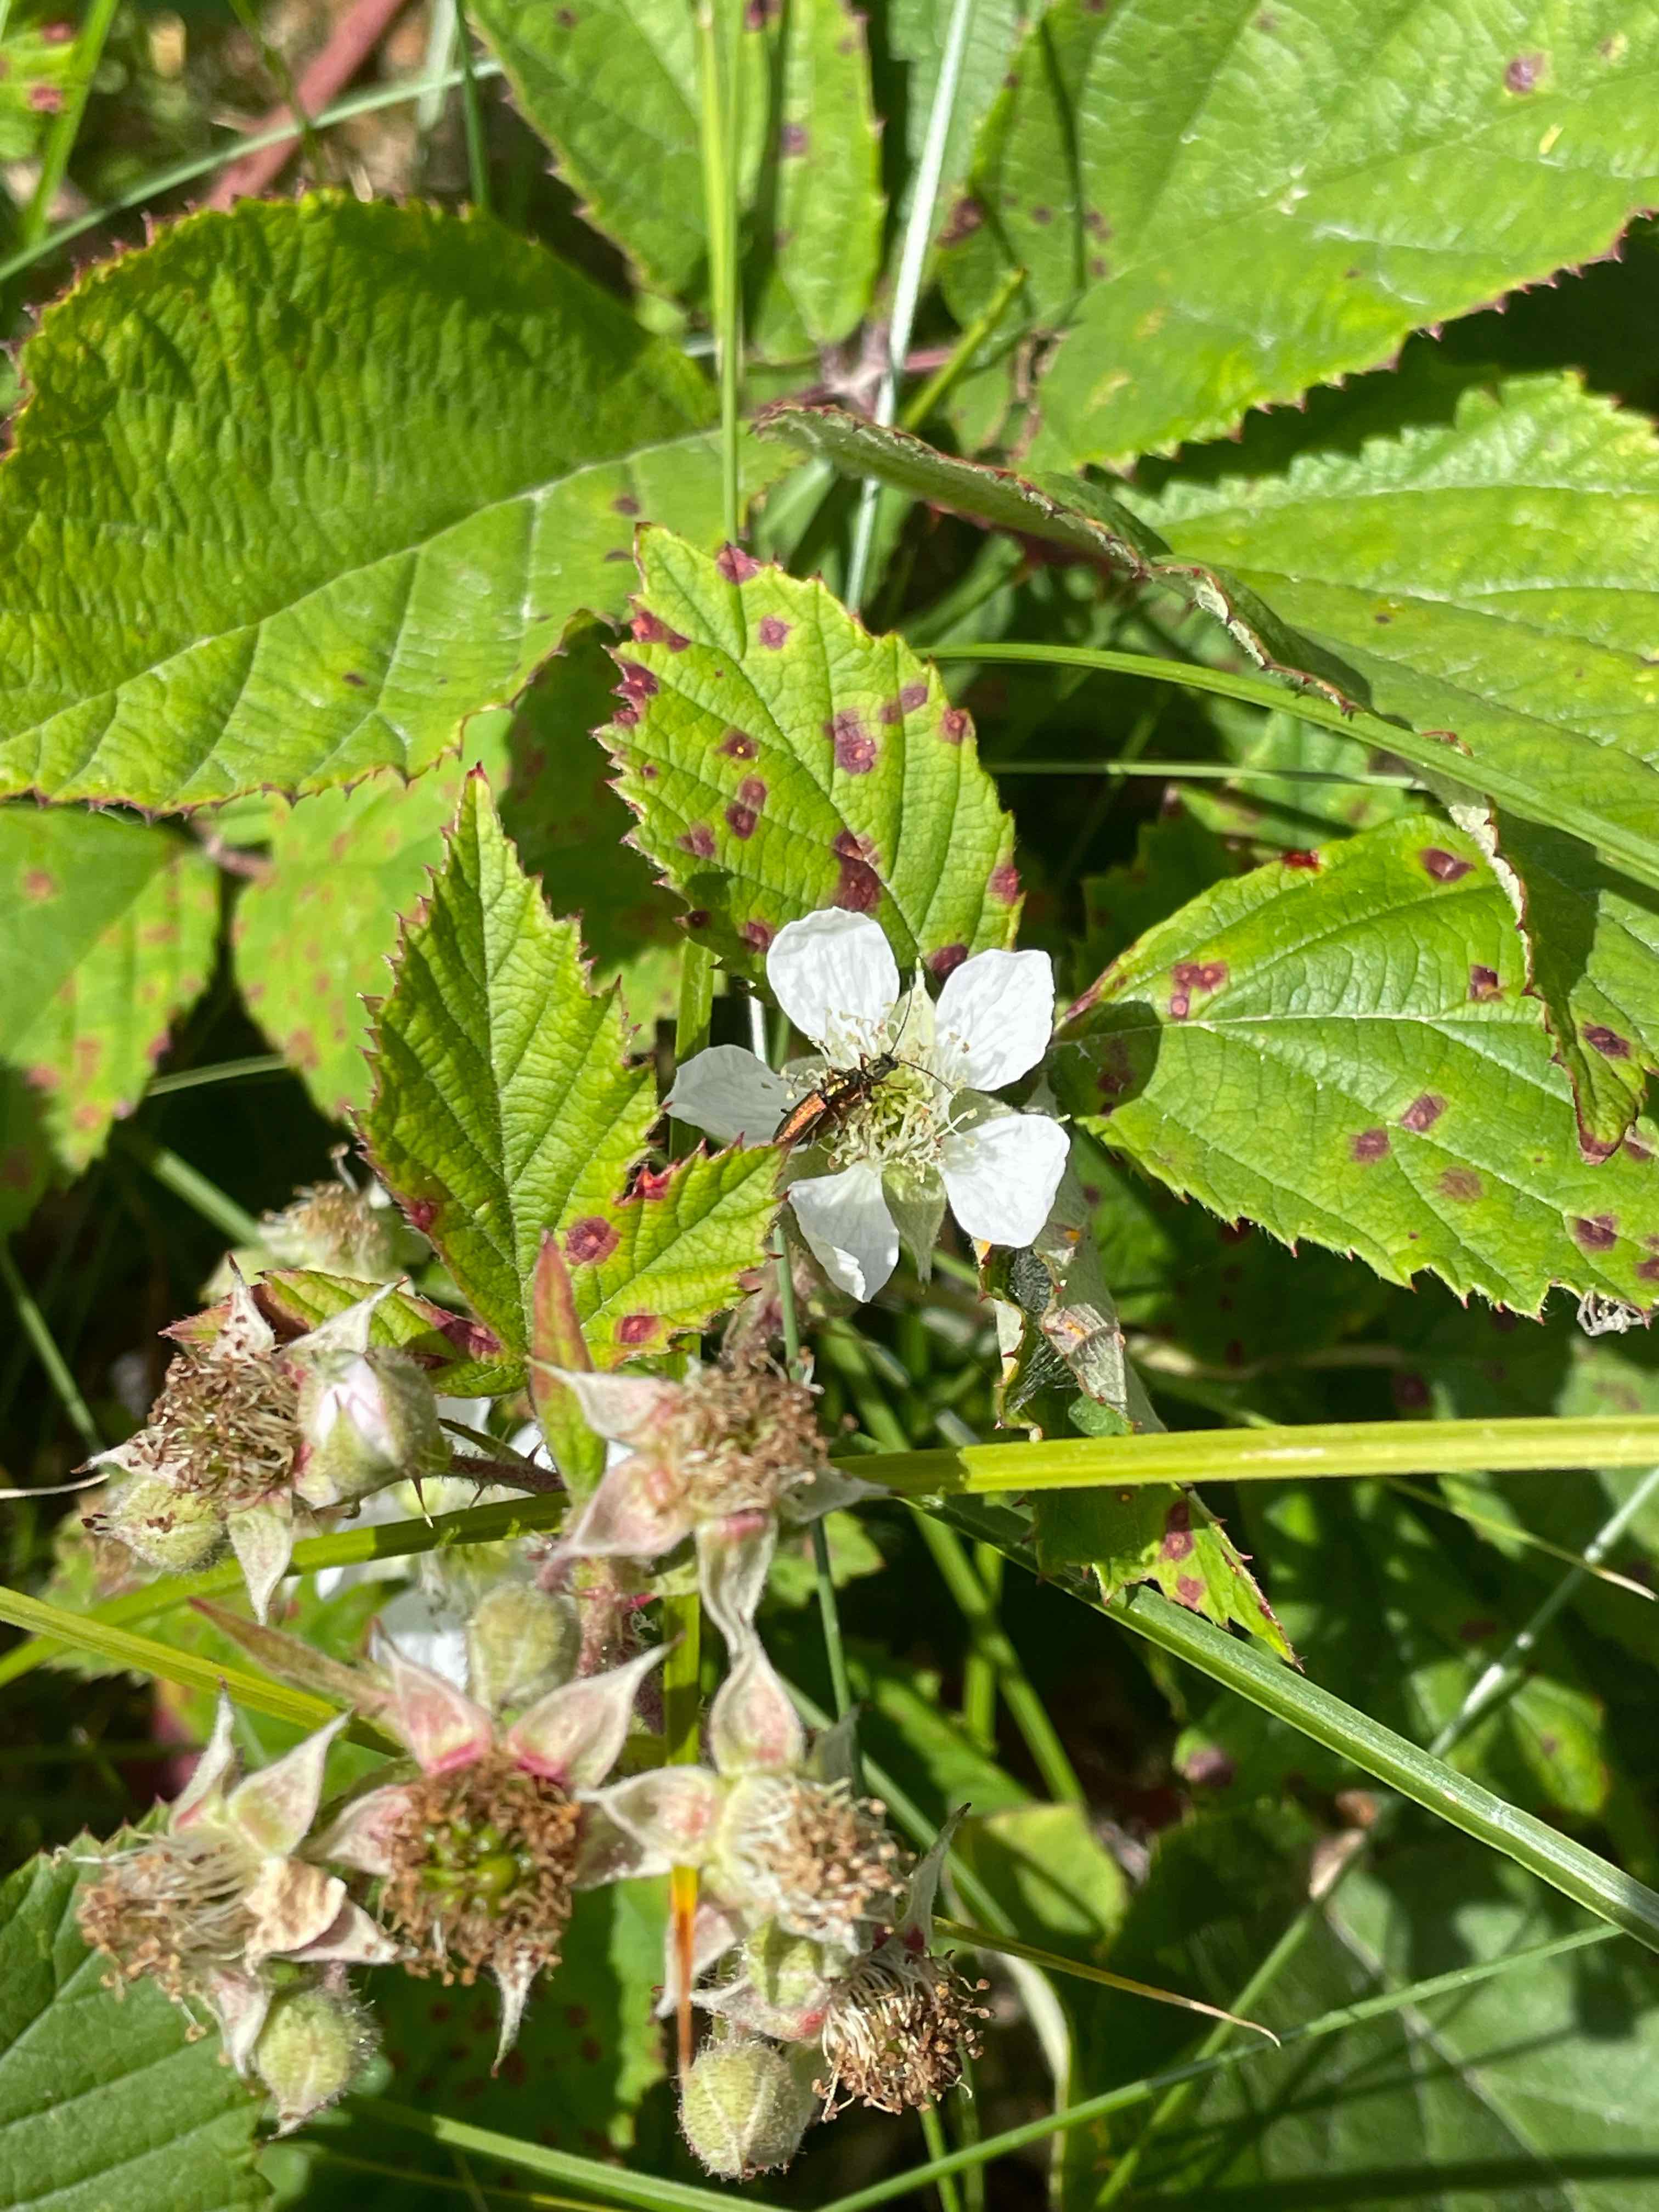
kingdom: Fungi
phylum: Basidiomycota
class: Pucciniomycetes
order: Pucciniales
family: Phragmidiaceae
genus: Phragmidium
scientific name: Phragmidium violaceum
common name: violet flercellerust
